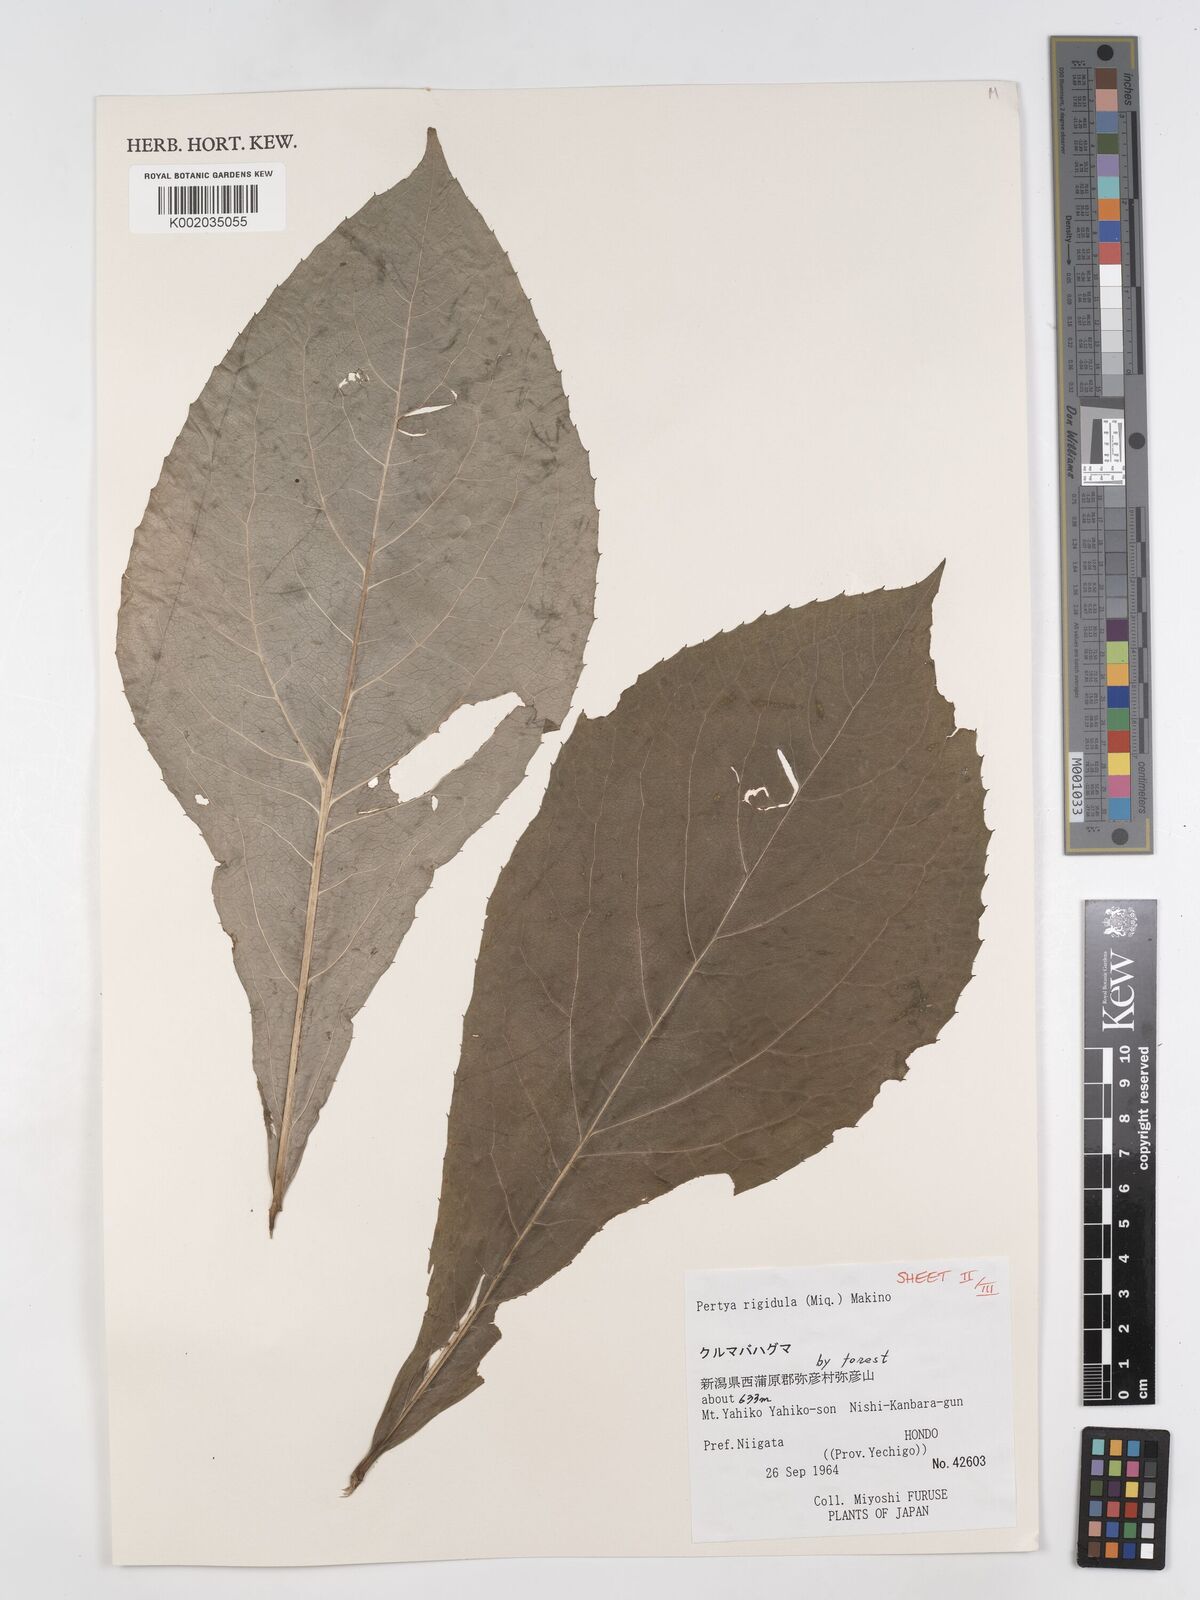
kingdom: Plantae
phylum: Tracheophyta
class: Magnoliopsida
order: Asterales
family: Asteraceae
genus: Pertya
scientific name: Pertya rigidula
